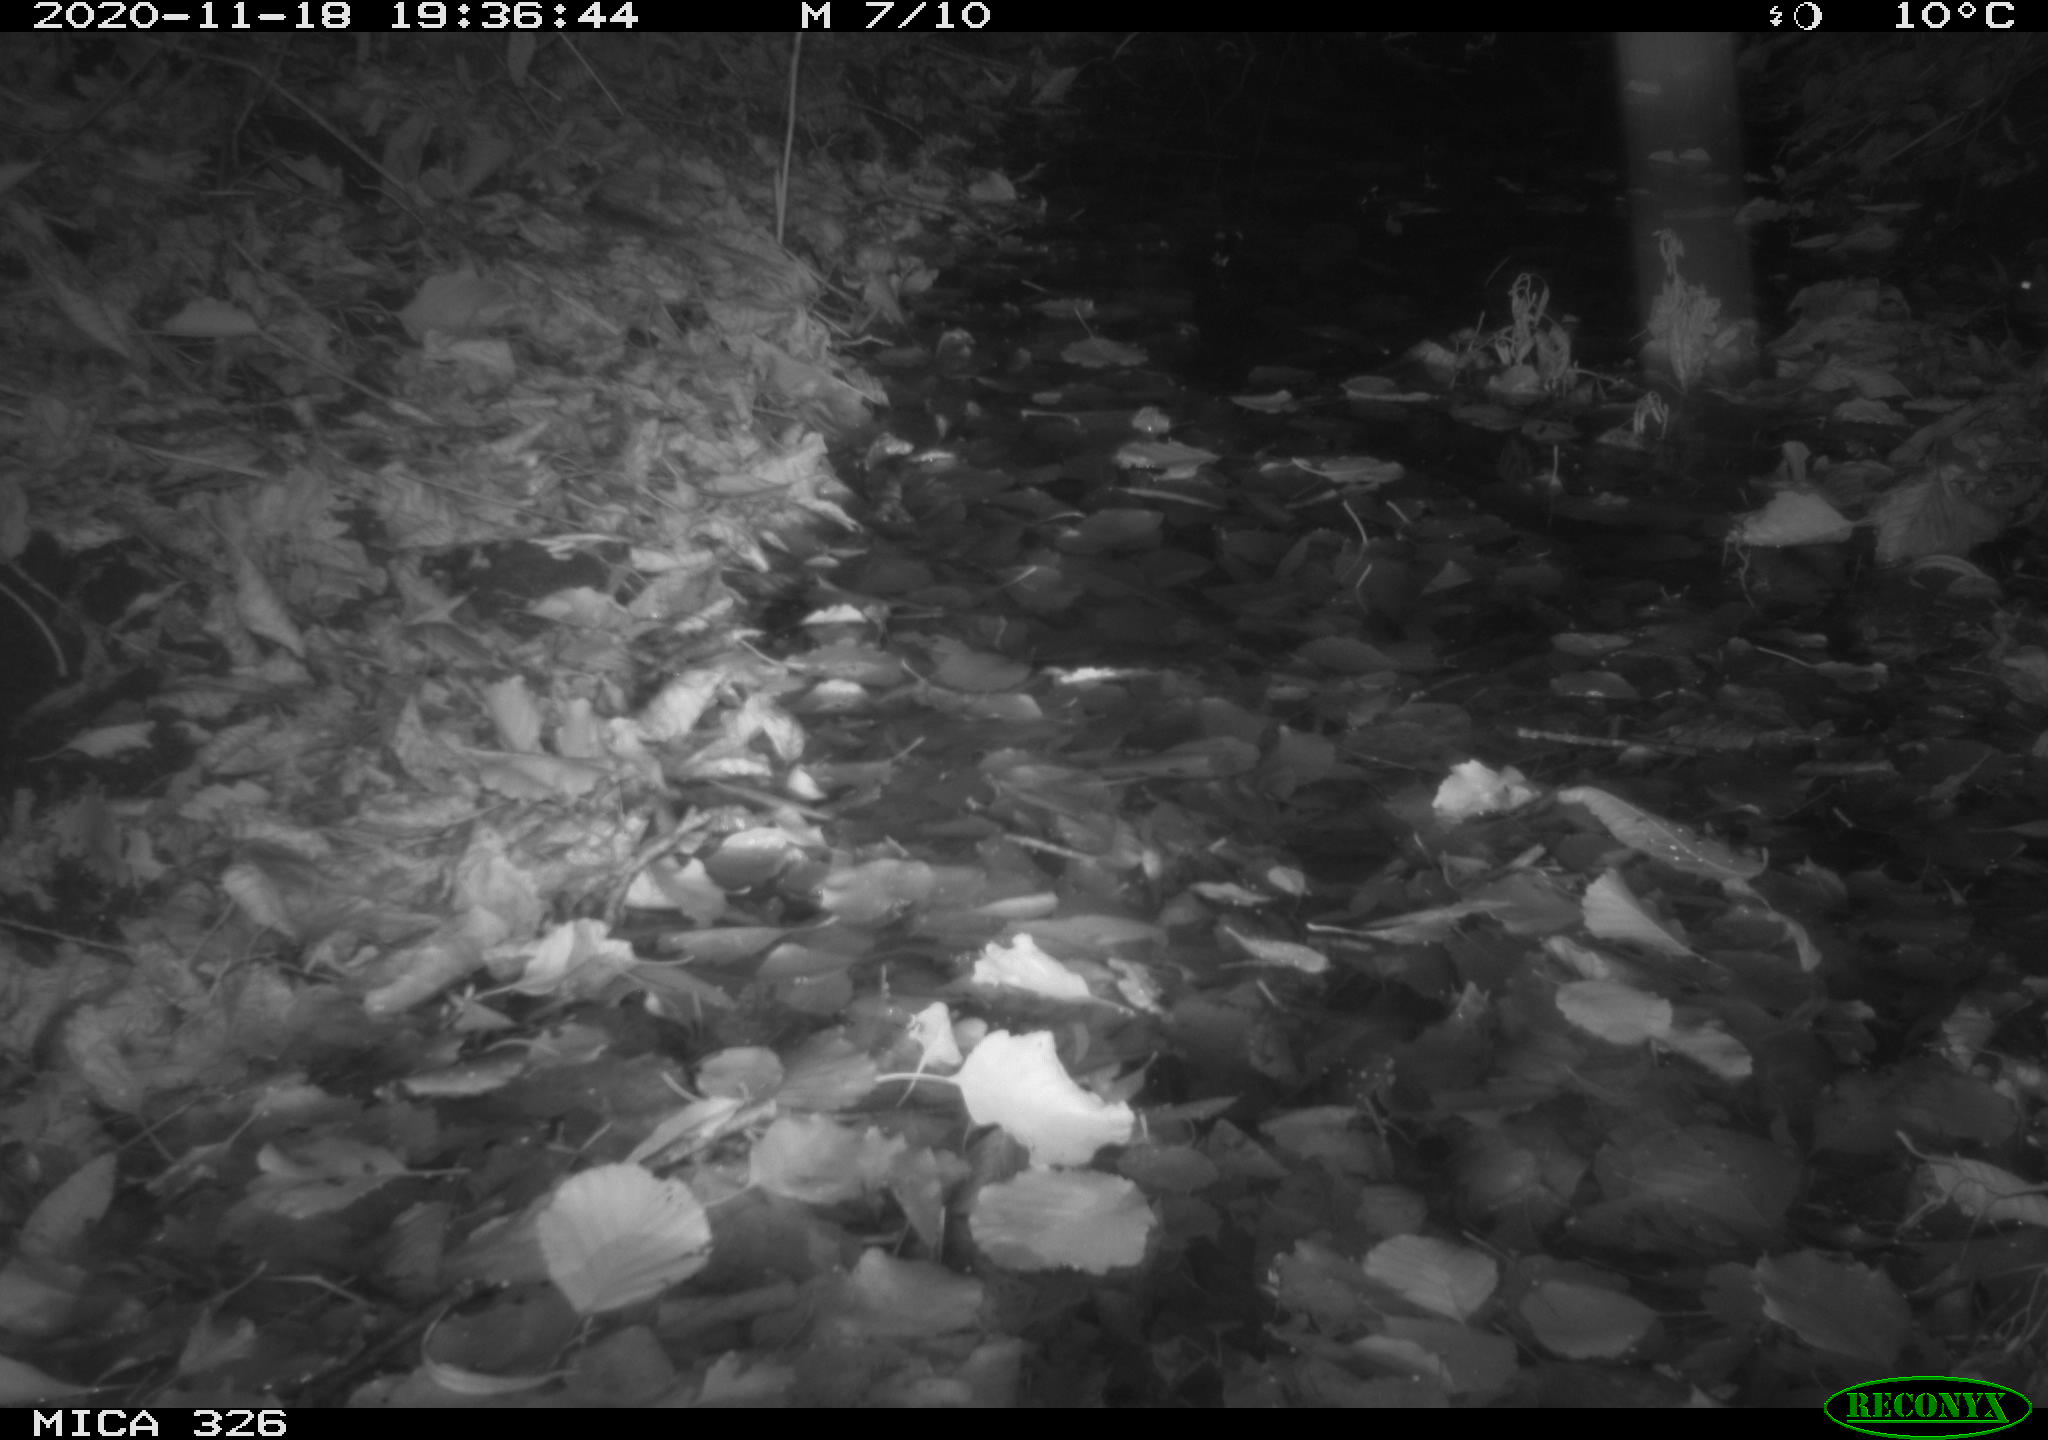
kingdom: Animalia
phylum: Chordata
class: Mammalia
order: Rodentia
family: Muridae
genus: Rattus
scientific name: Rattus norvegicus
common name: Brown rat
